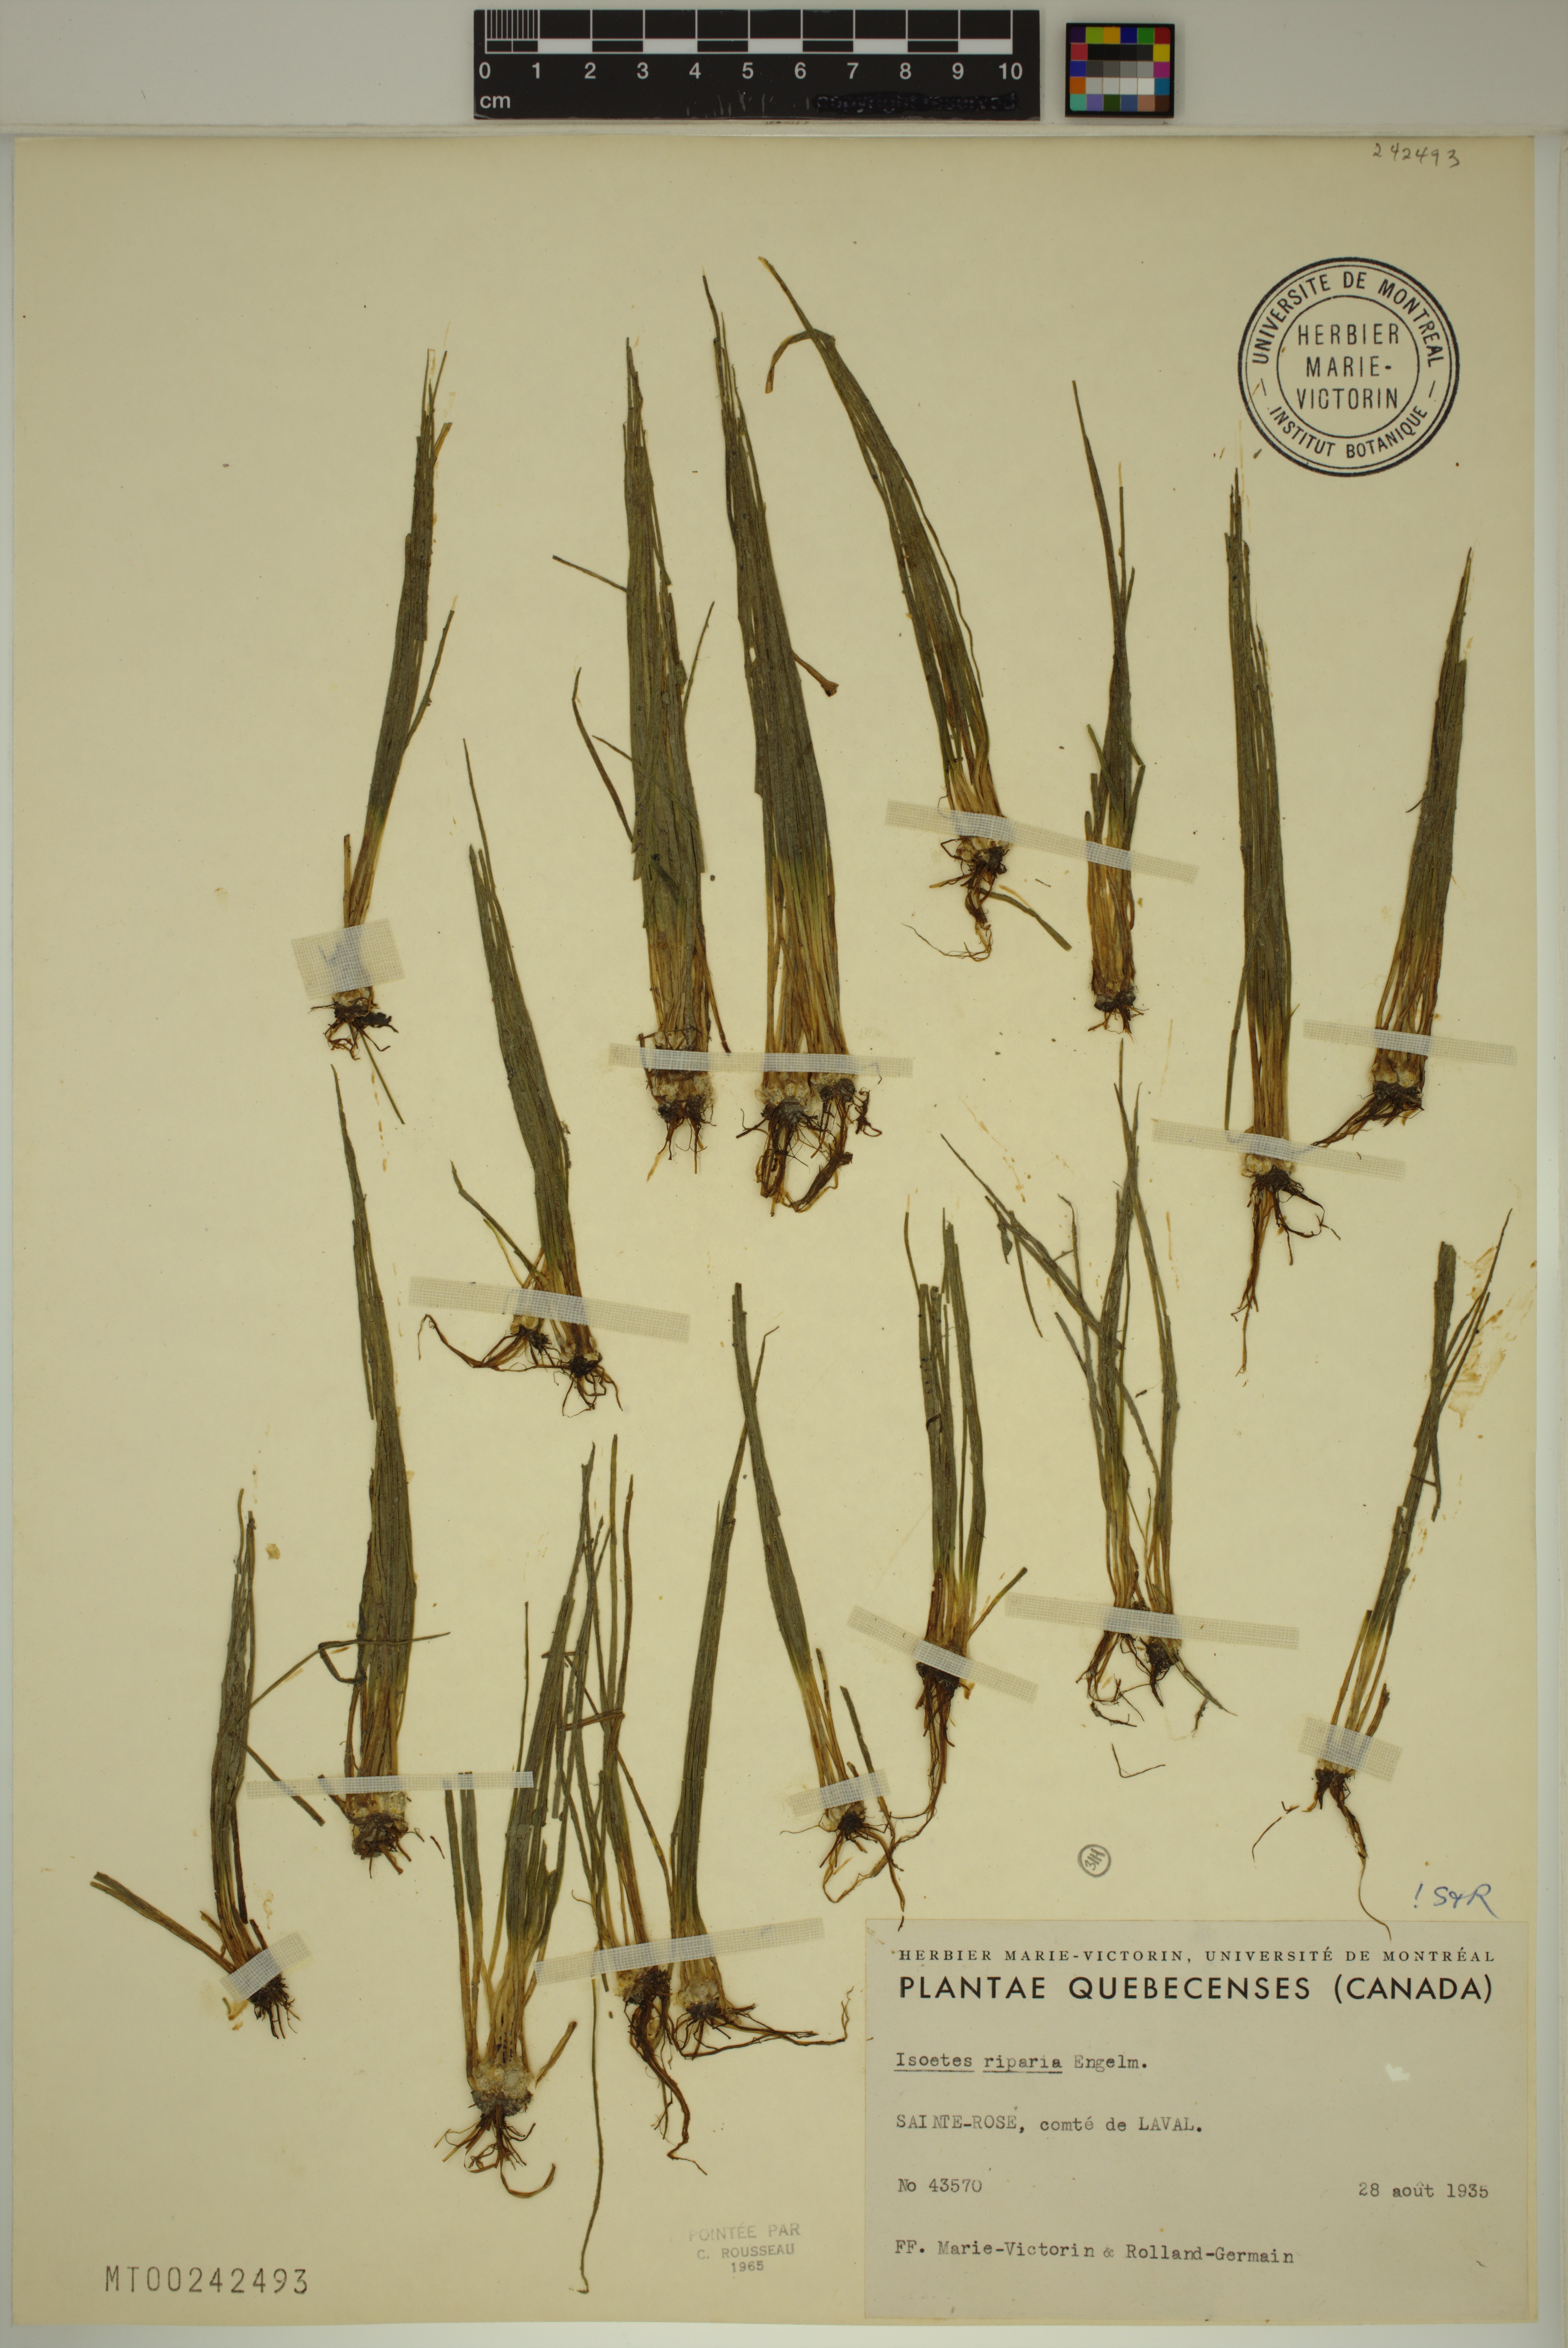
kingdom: Plantae
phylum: Tracheophyta
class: Lycopodiopsida
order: Isoetales
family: Isoetaceae
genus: Isoetes
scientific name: Isoetes septentrionalis
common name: Northern quillwort
